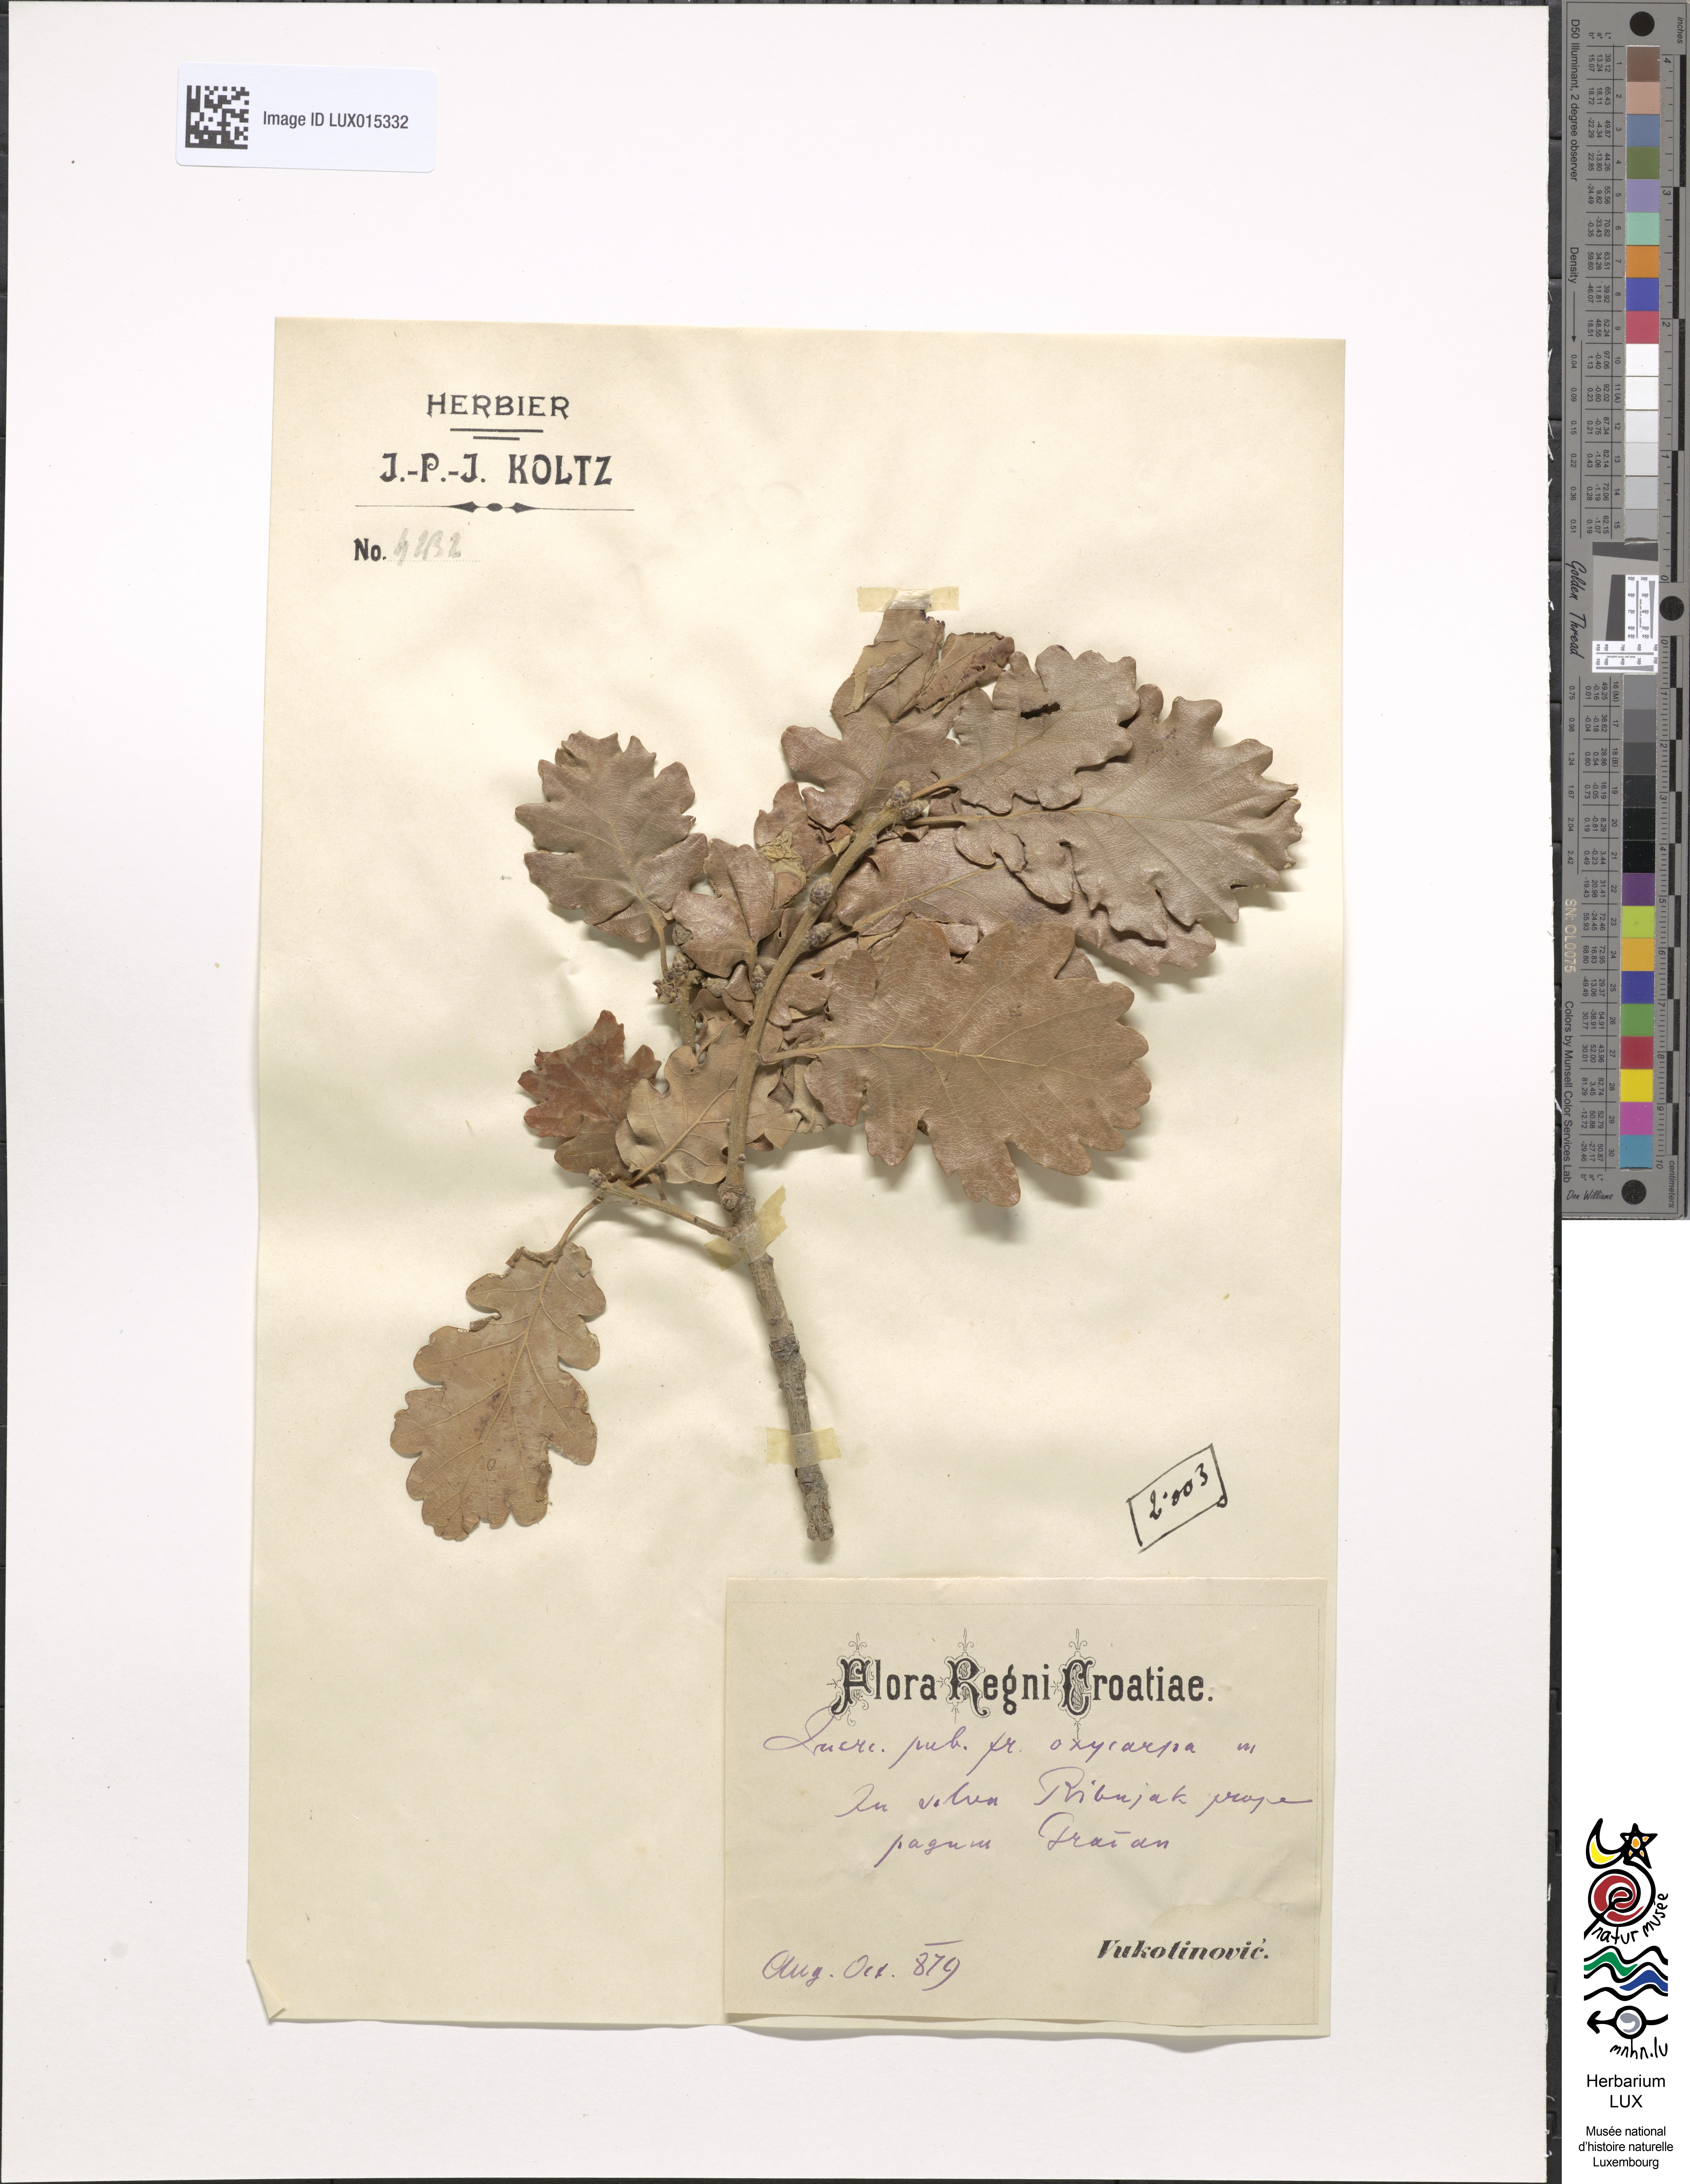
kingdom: Plantae
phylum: Tracheophyta
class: Magnoliopsida
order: Fagales
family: Fagaceae
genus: Quercus
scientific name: Quercus pubescens
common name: Downy oak
